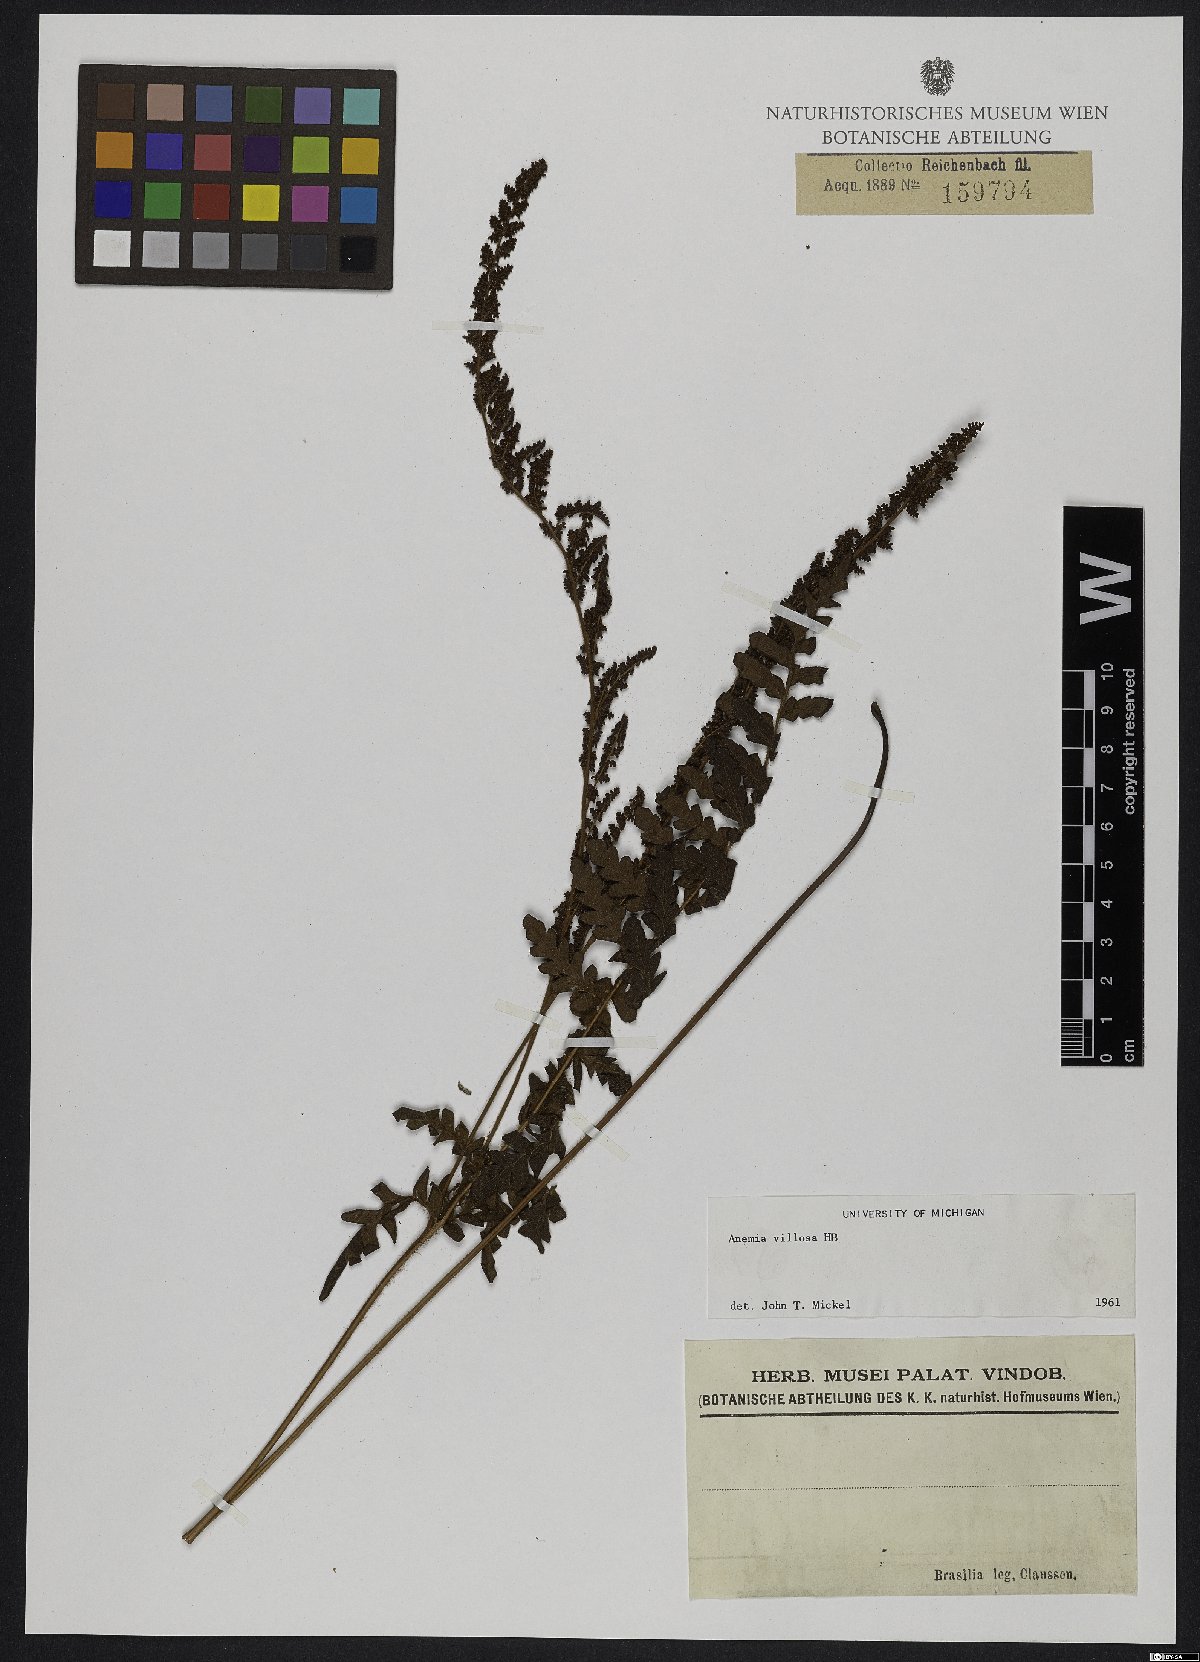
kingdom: Plantae
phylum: Tracheophyta
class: Polypodiopsida
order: Schizaeales
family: Anemiaceae
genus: Anemia
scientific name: Anemia villosa
